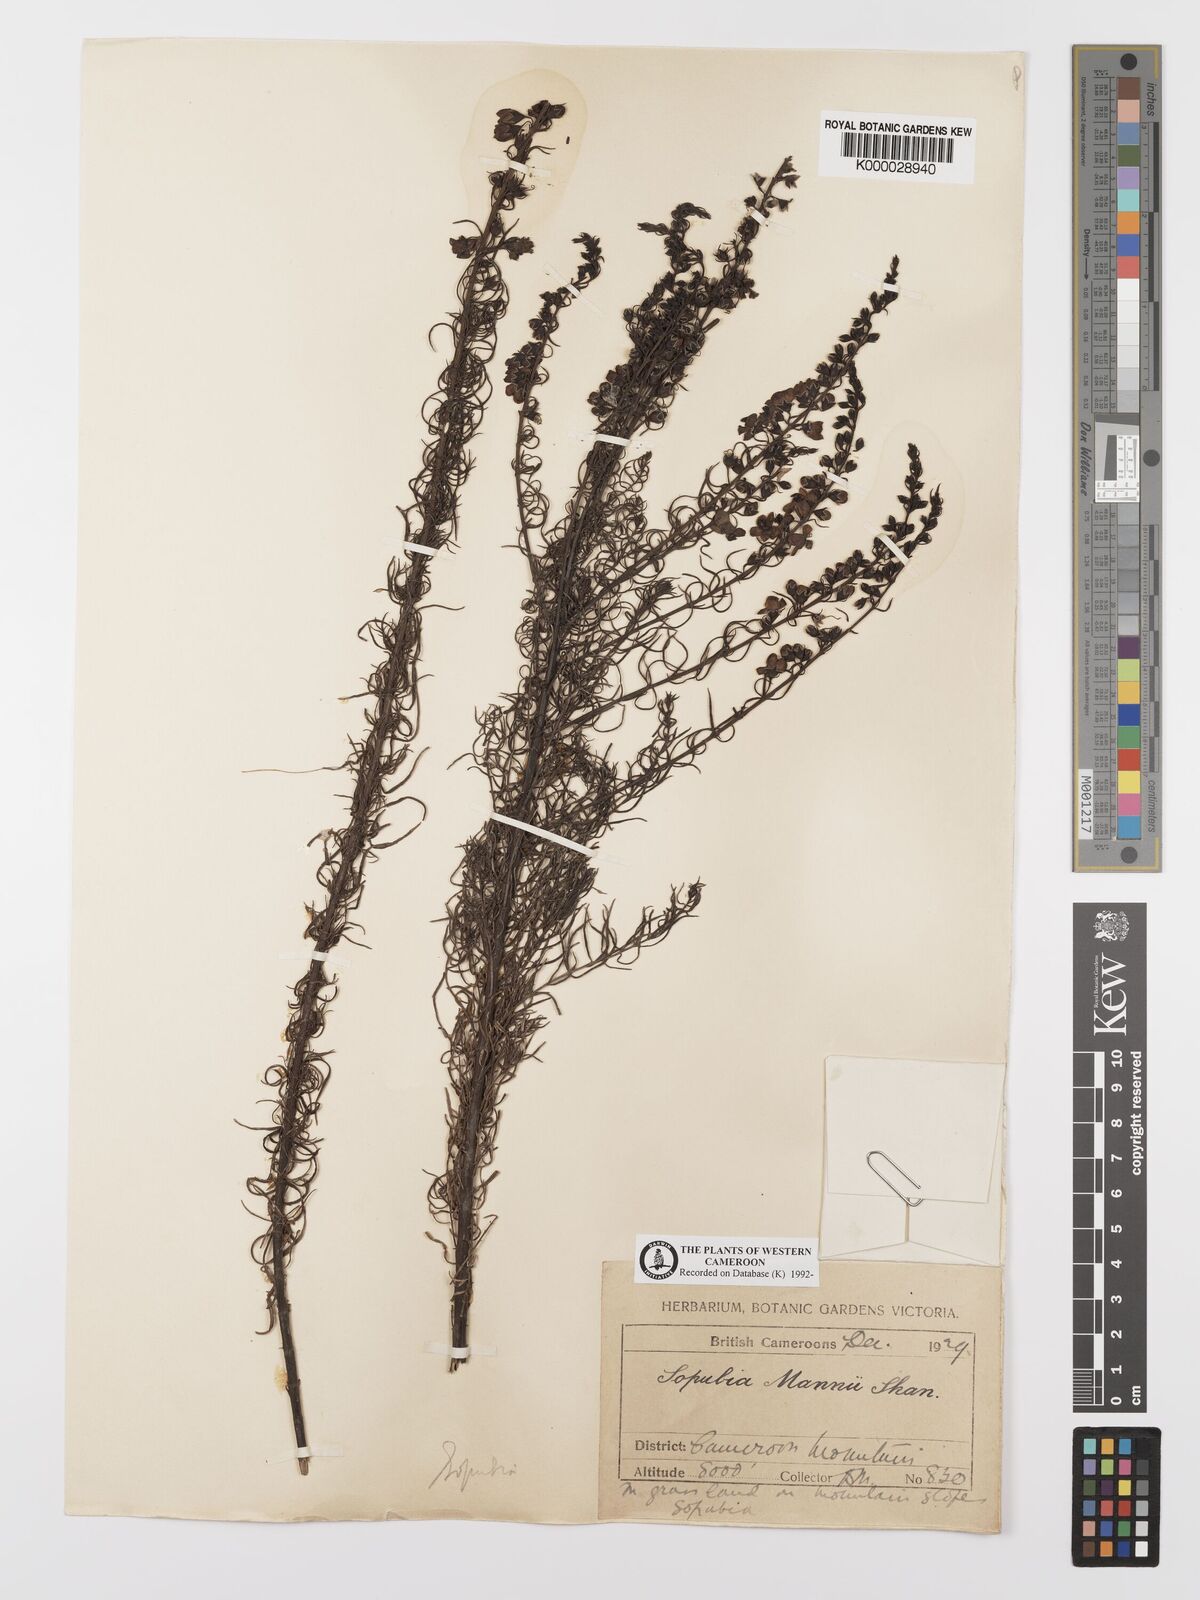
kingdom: Plantae
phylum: Tracheophyta
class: Magnoliopsida
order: Lamiales
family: Orobanchaceae
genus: Sopubia
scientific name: Sopubia mannii
